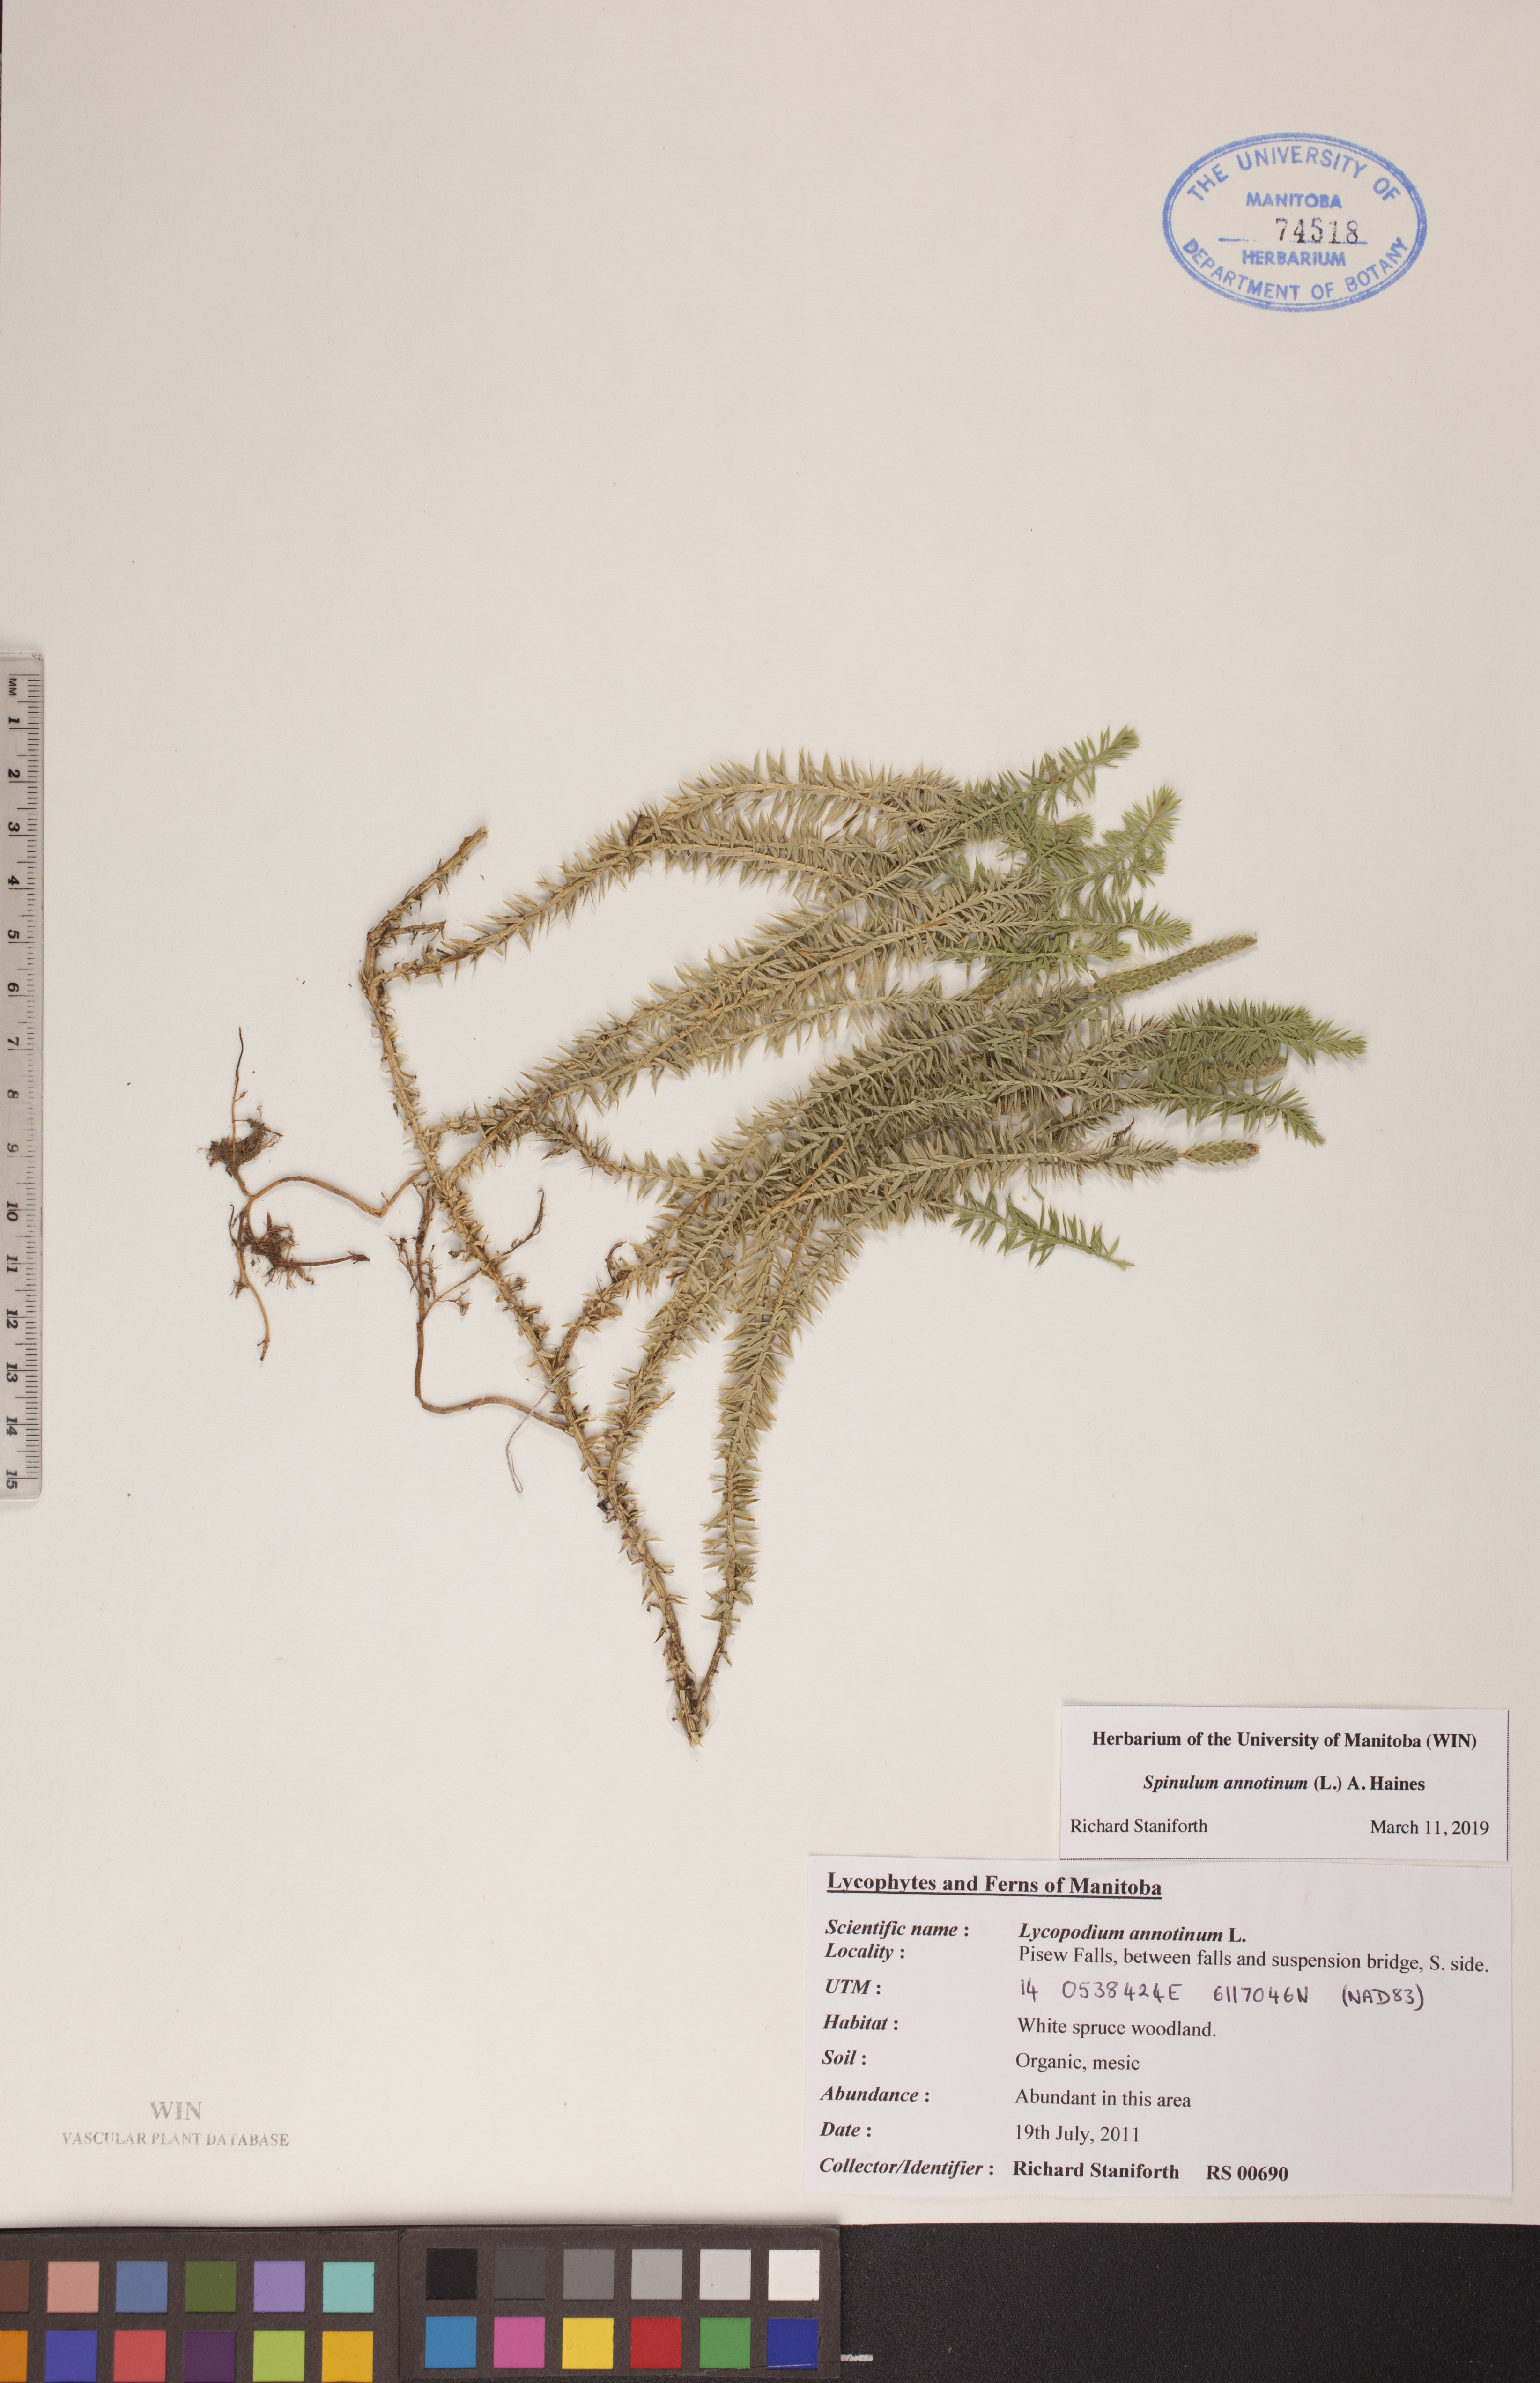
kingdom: Plantae
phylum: Tracheophyta
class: Lycopodiopsida
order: Lycopodiales
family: Lycopodiaceae
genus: Spinulum
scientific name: Spinulum annotinum
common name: Interrupted club-moss
